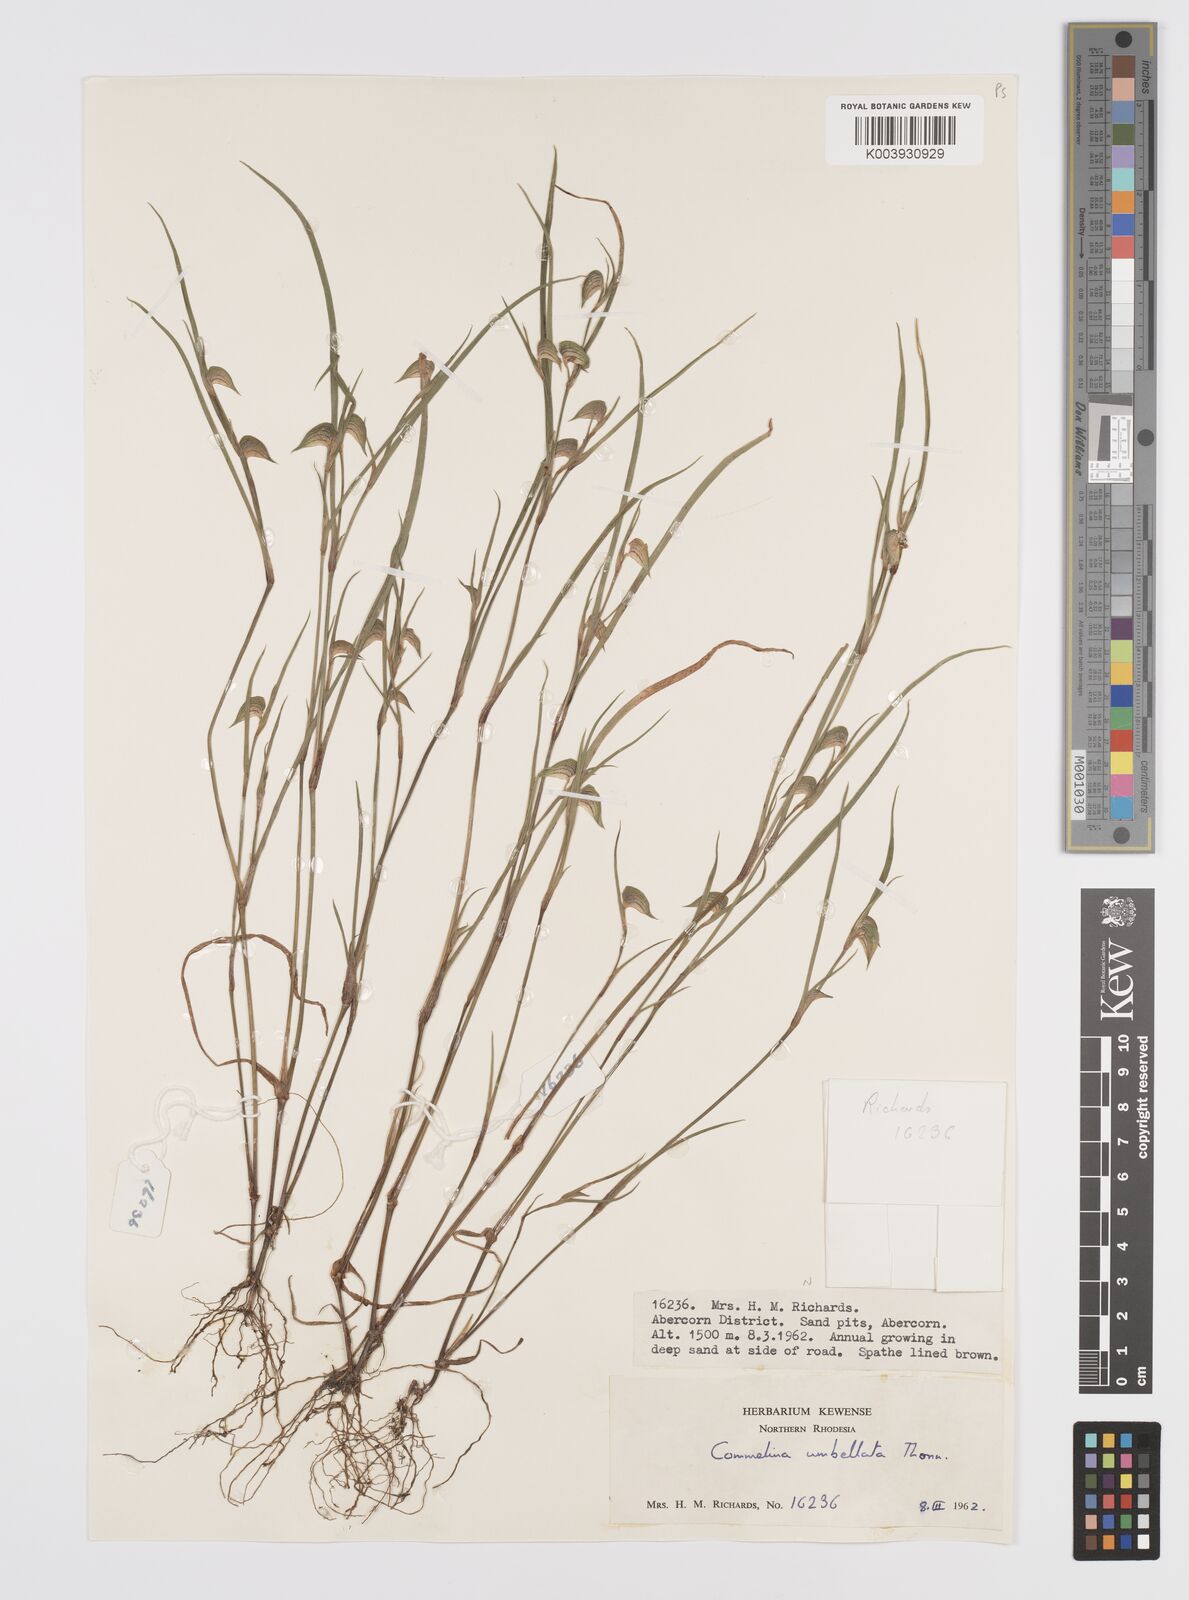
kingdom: Plantae
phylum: Tracheophyta
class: Liliopsida
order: Commelinales
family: Commelinaceae
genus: Commelina
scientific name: Commelina nigritana
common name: African dayflower
